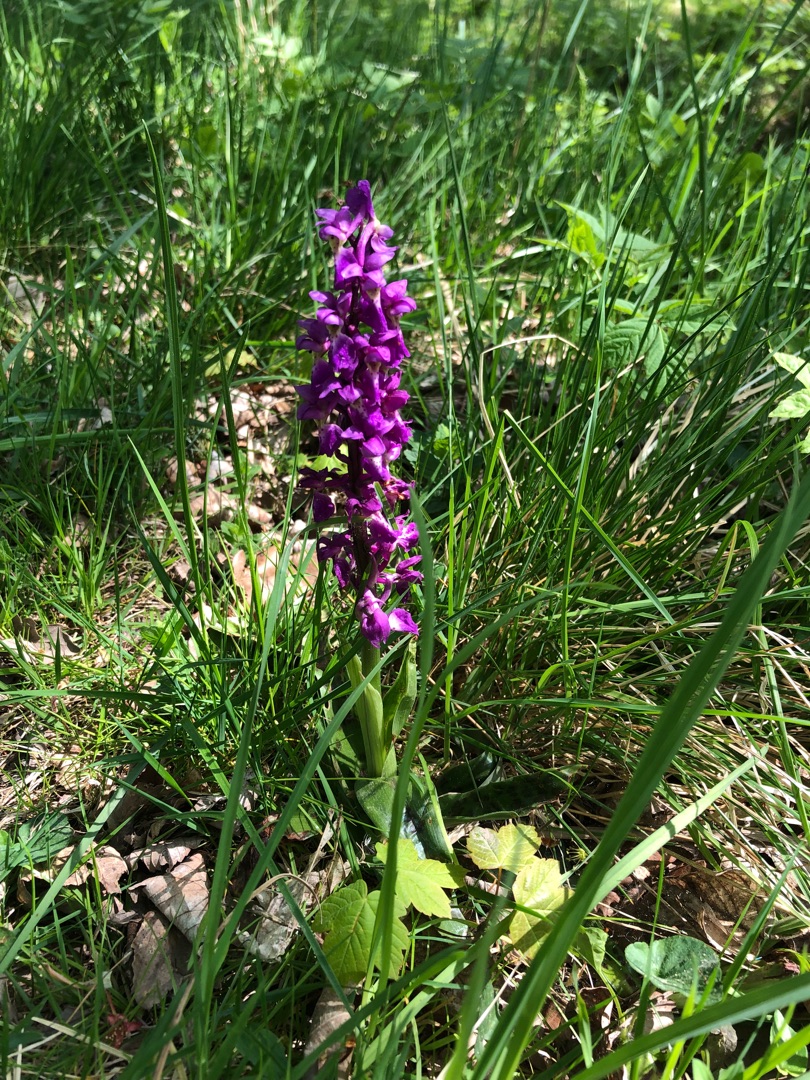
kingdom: Plantae
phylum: Tracheophyta
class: Liliopsida
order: Asparagales
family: Orchidaceae
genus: Orchis
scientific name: Orchis mascula
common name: Tyndakset gøgeurt
